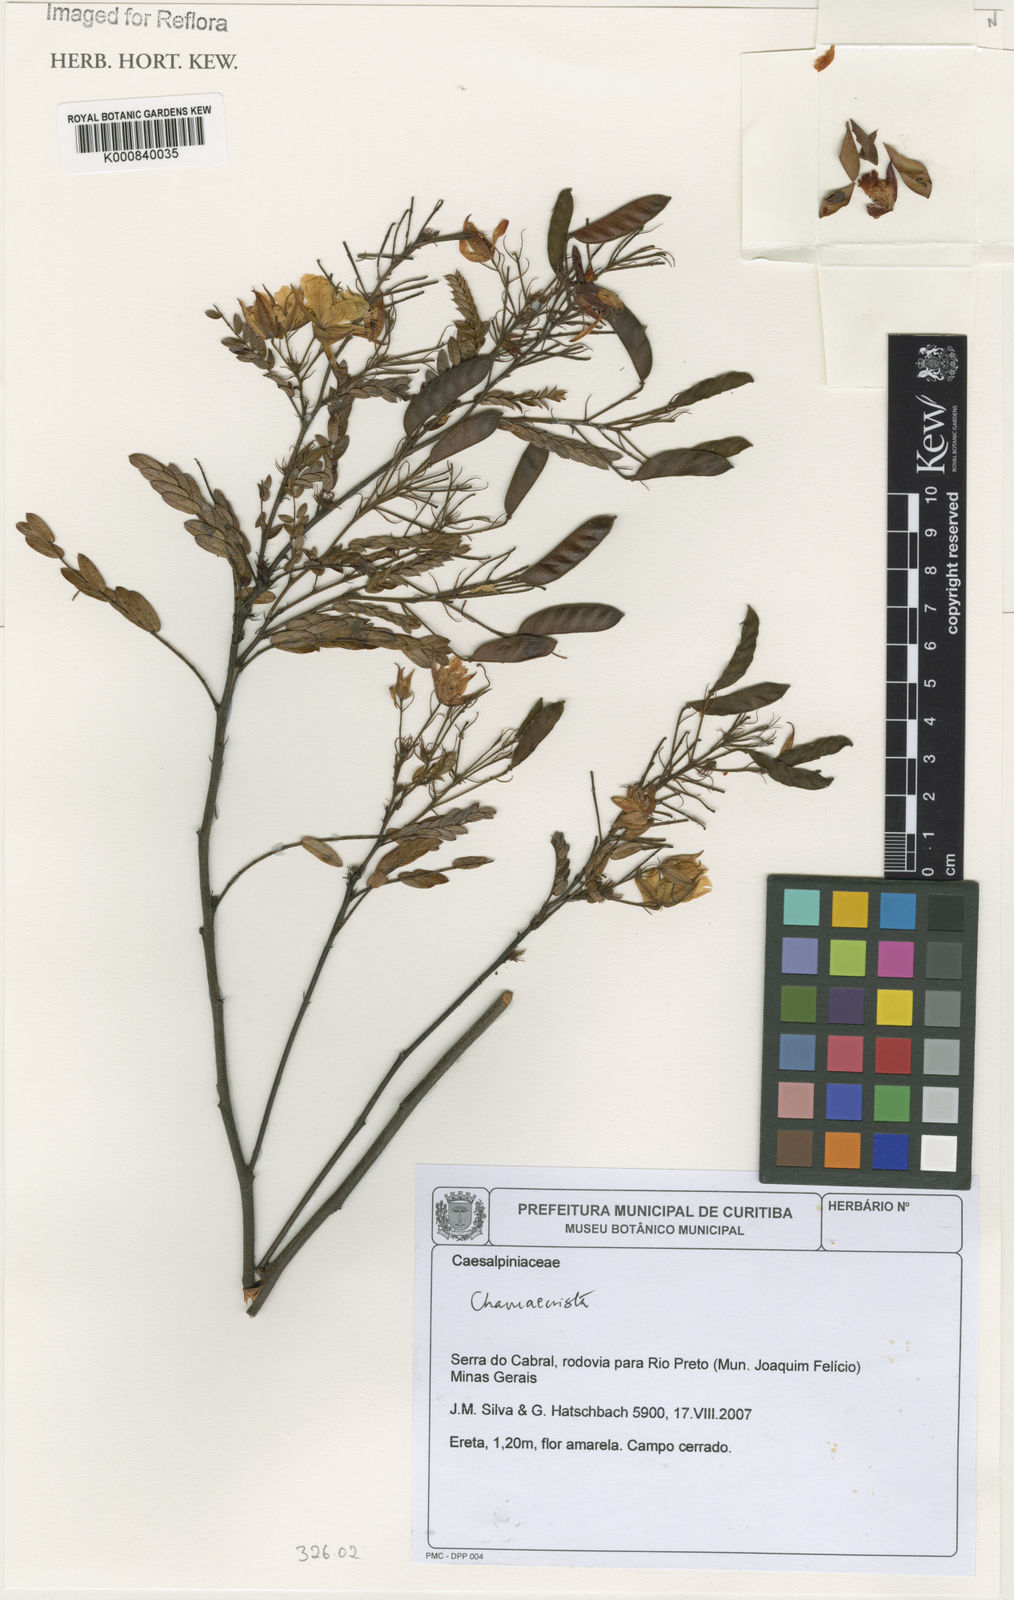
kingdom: Plantae
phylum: Tracheophyta
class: Magnoliopsida
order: Fabales
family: Fabaceae
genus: Chamaecrista
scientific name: Chamaecrista
